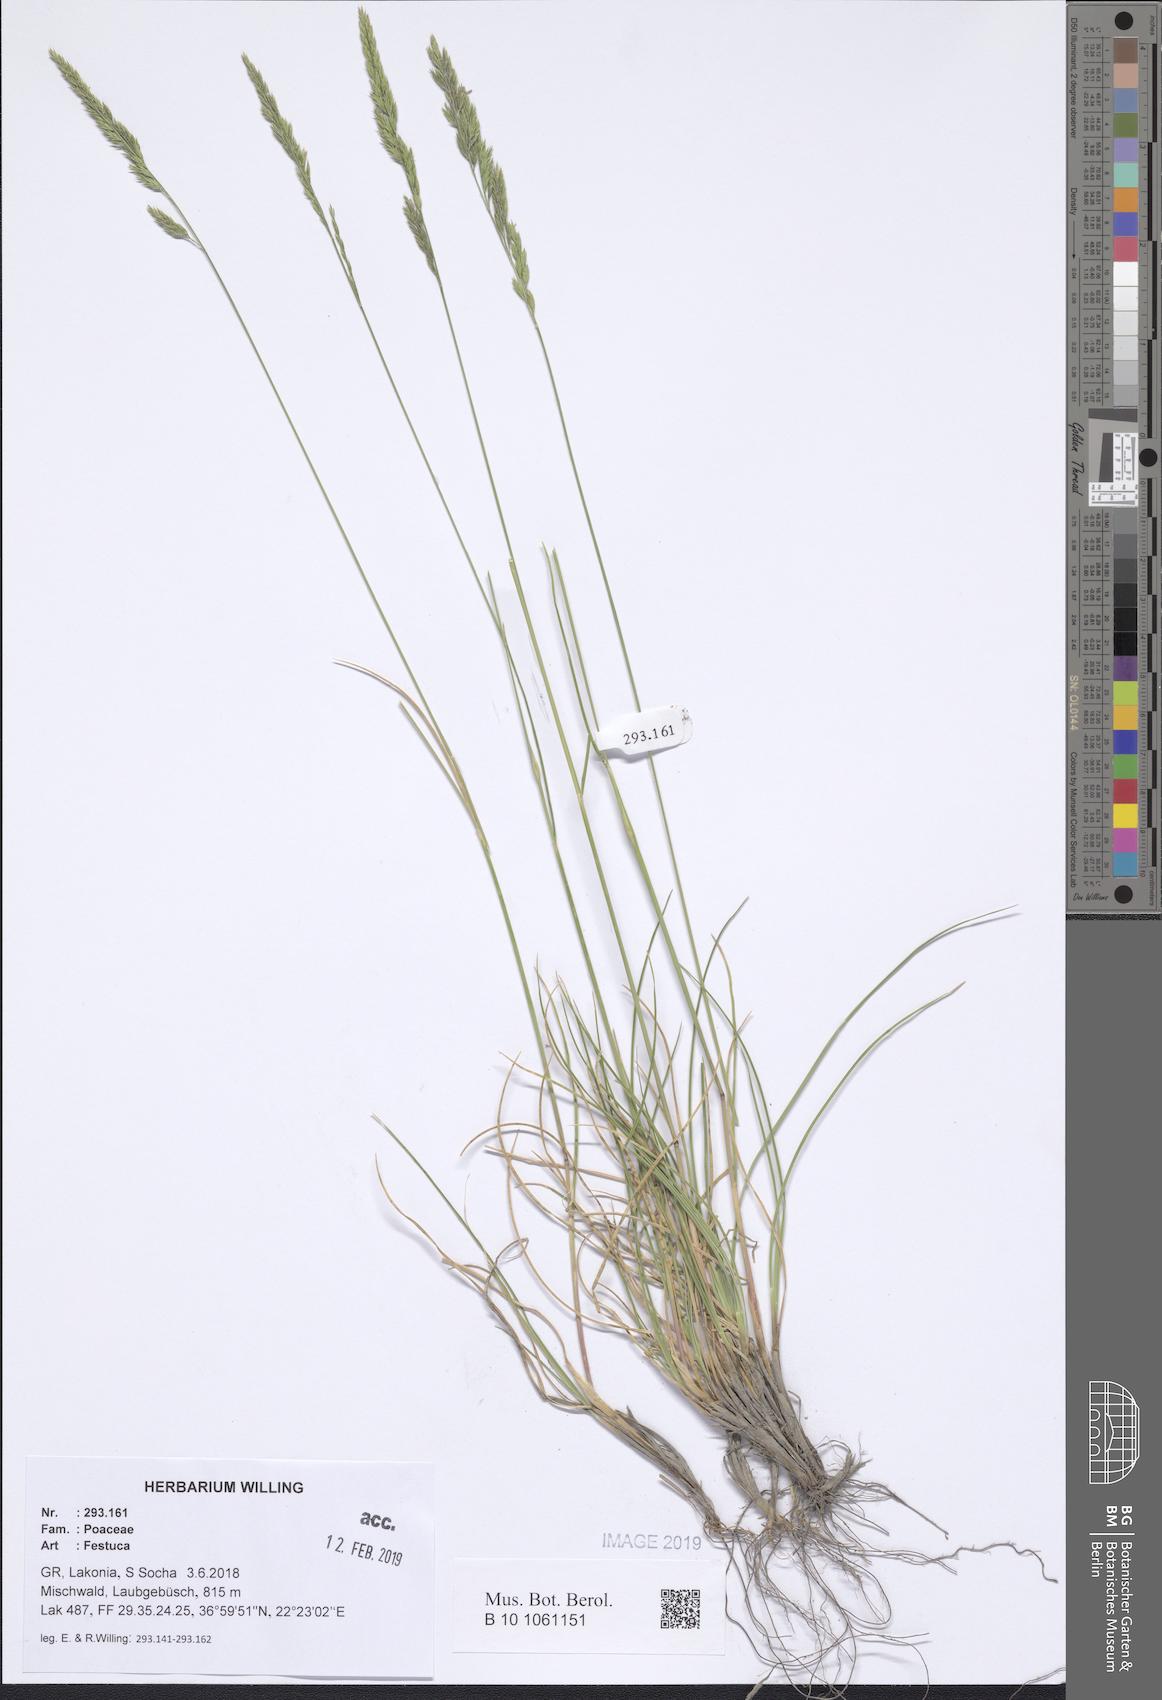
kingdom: Plantae
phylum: Tracheophyta
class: Liliopsida
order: Poales
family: Poaceae
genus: Festuca
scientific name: Festuca
